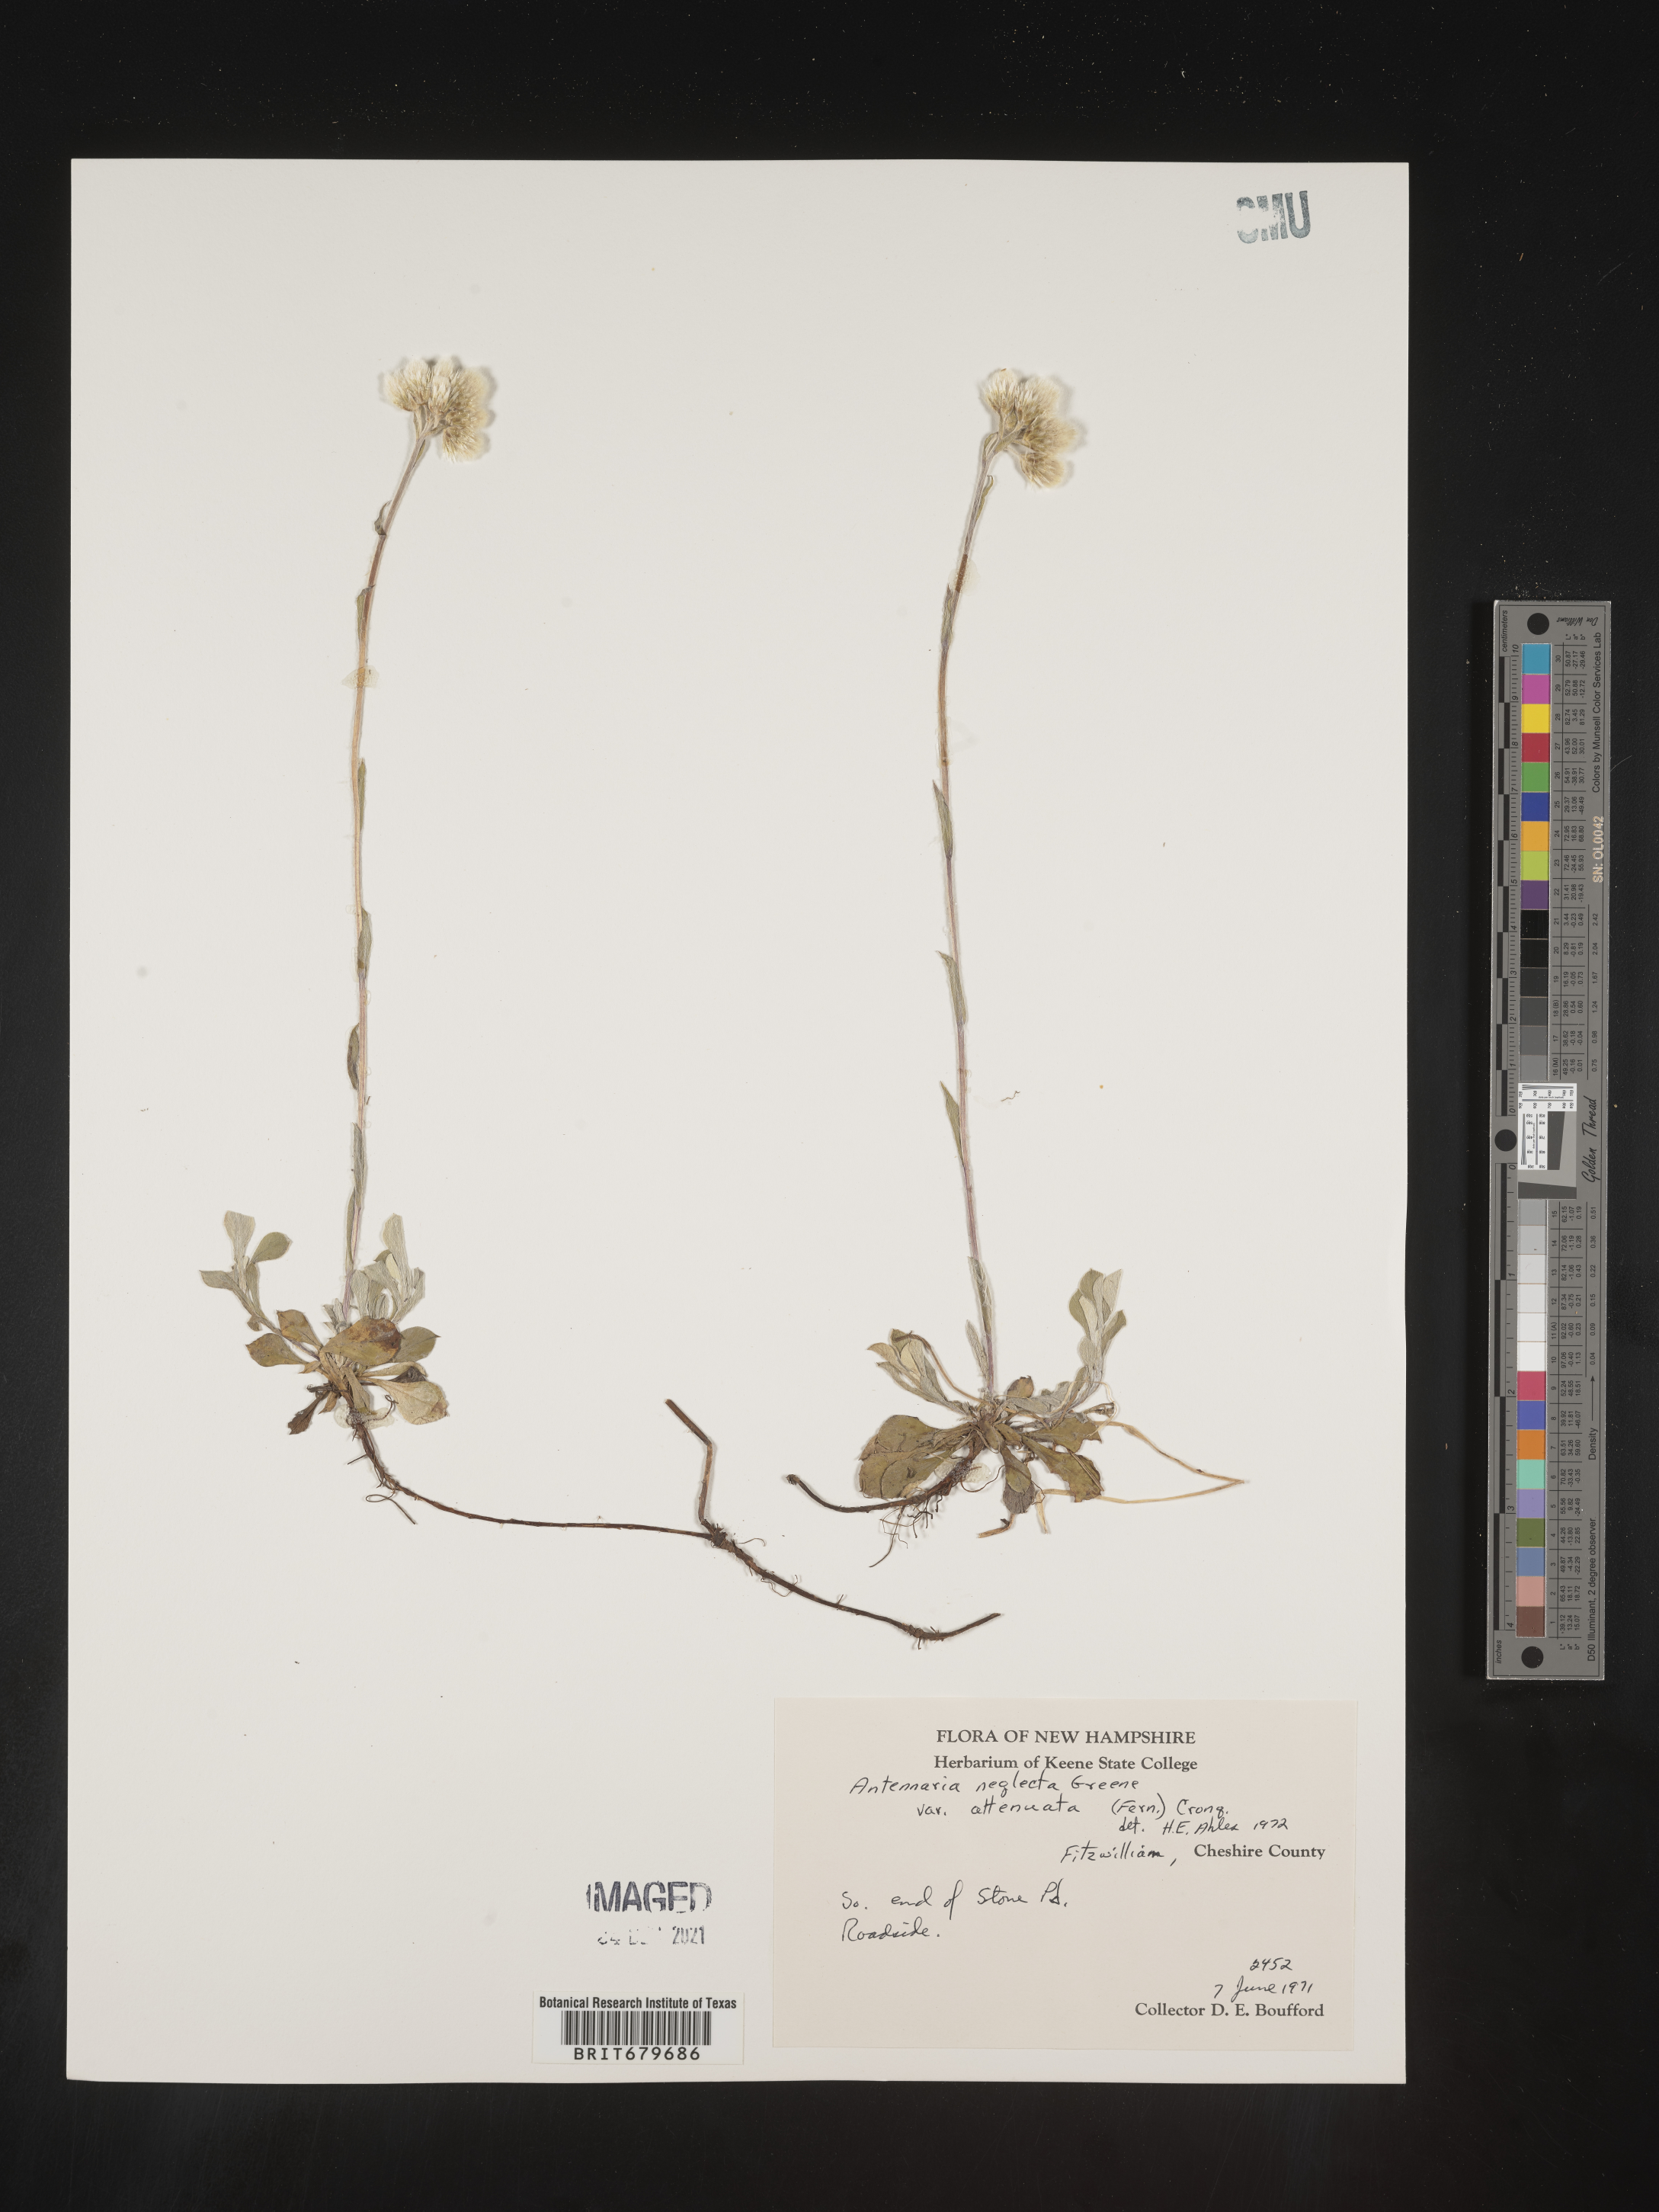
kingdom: Plantae
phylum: Tracheophyta
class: Magnoliopsida
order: Asterales
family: Asteraceae
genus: Antennaria
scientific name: Antennaria neglecta
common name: Field pussytoes
